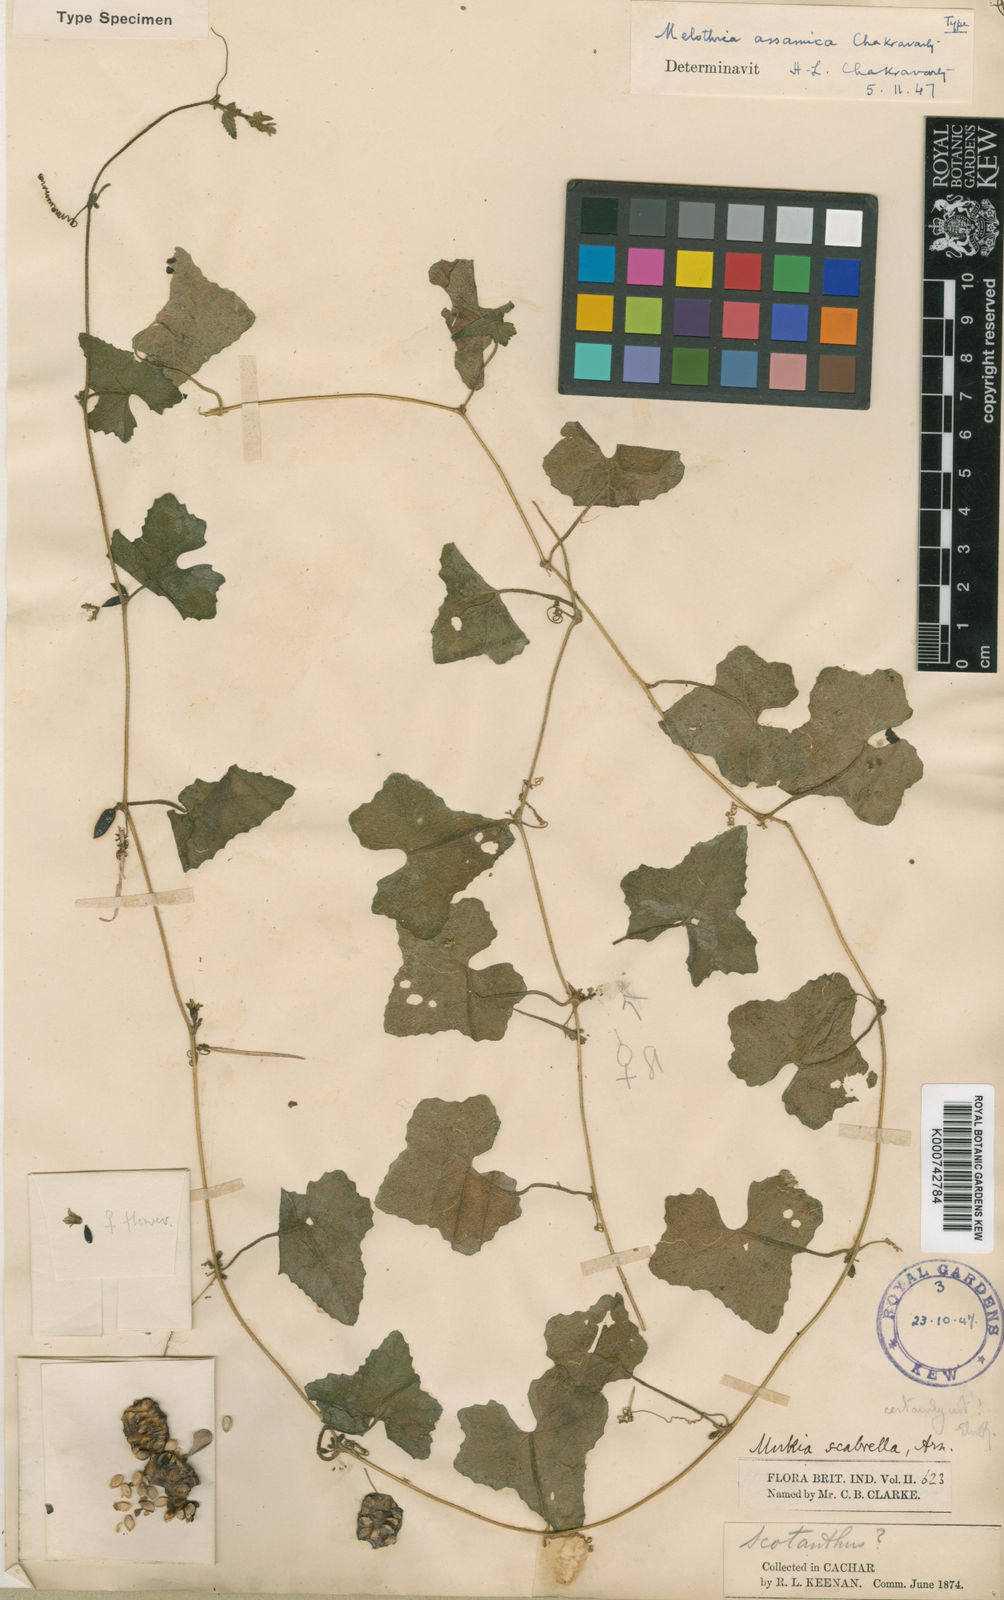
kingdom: Plantae
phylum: Tracheophyta
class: Magnoliopsida
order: Cucurbitales
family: Cucurbitaceae
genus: Cucumis
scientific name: Cucumis javanicus
